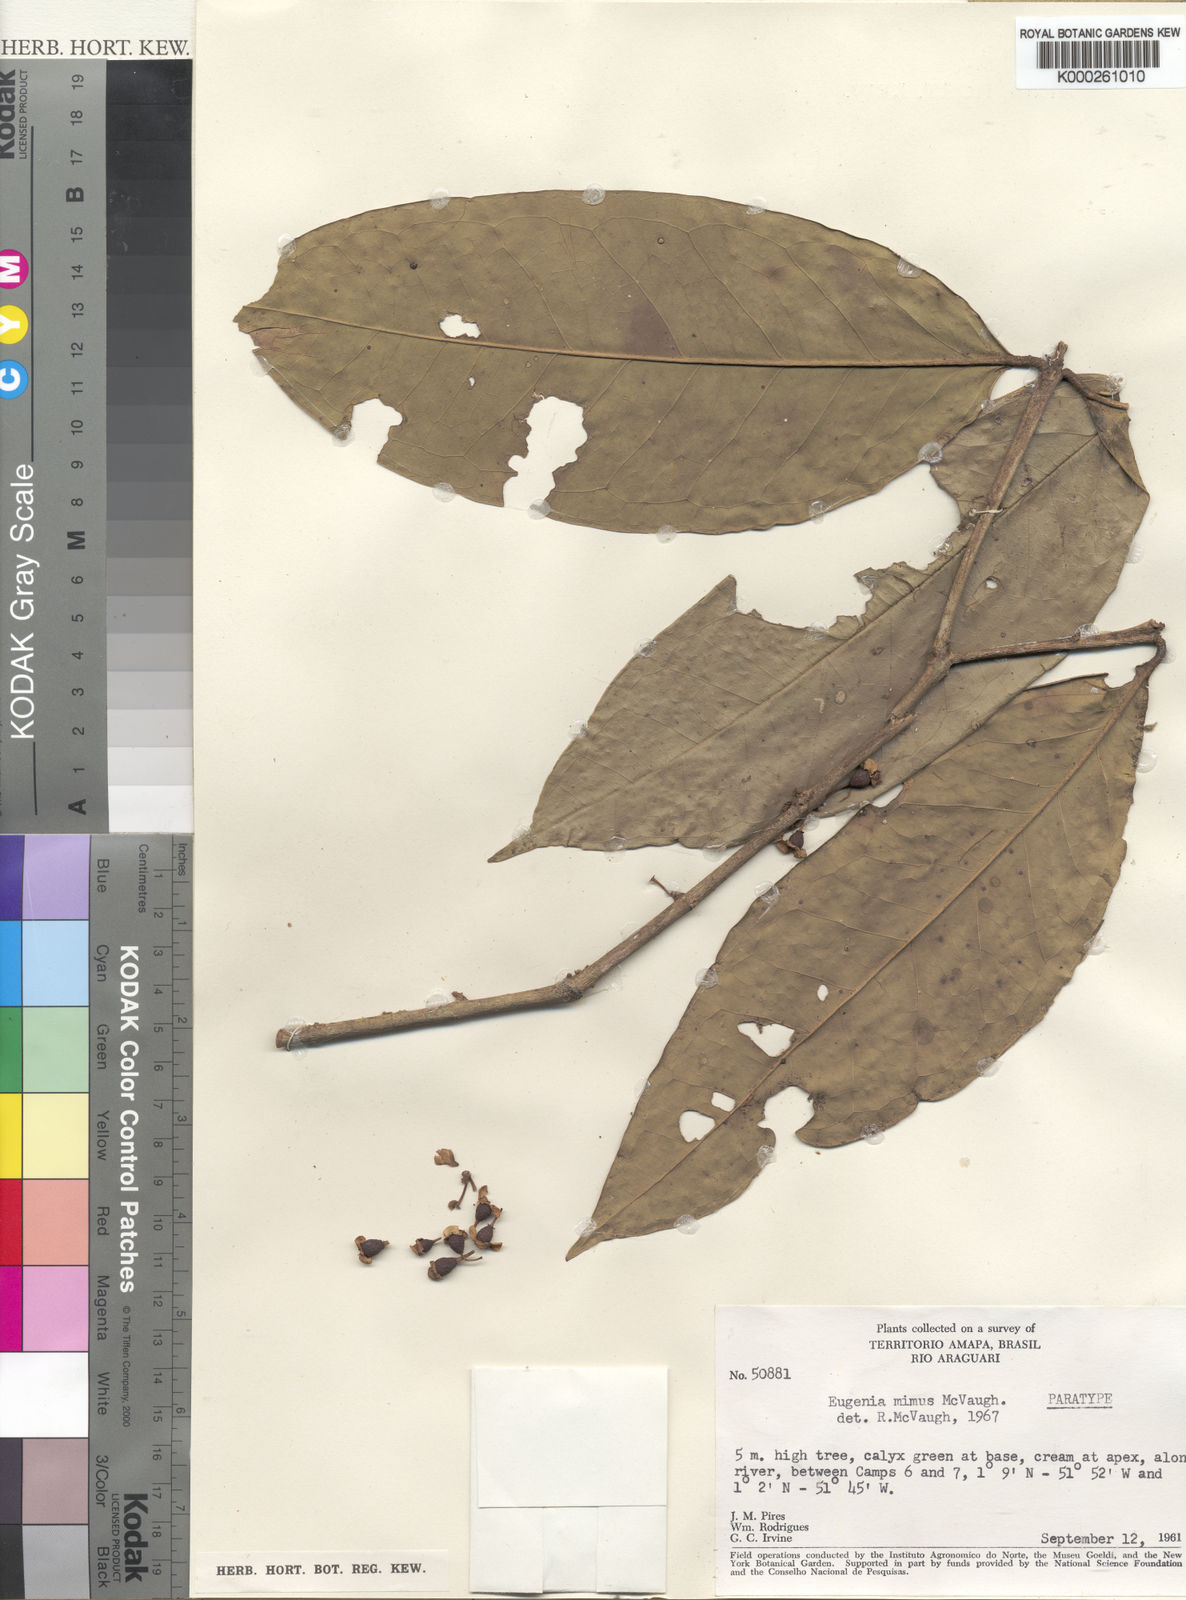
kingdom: Plantae
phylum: Tracheophyta
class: Magnoliopsida
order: Myrtales
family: Myrtaceae
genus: Eugenia
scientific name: Eugenia mimus
